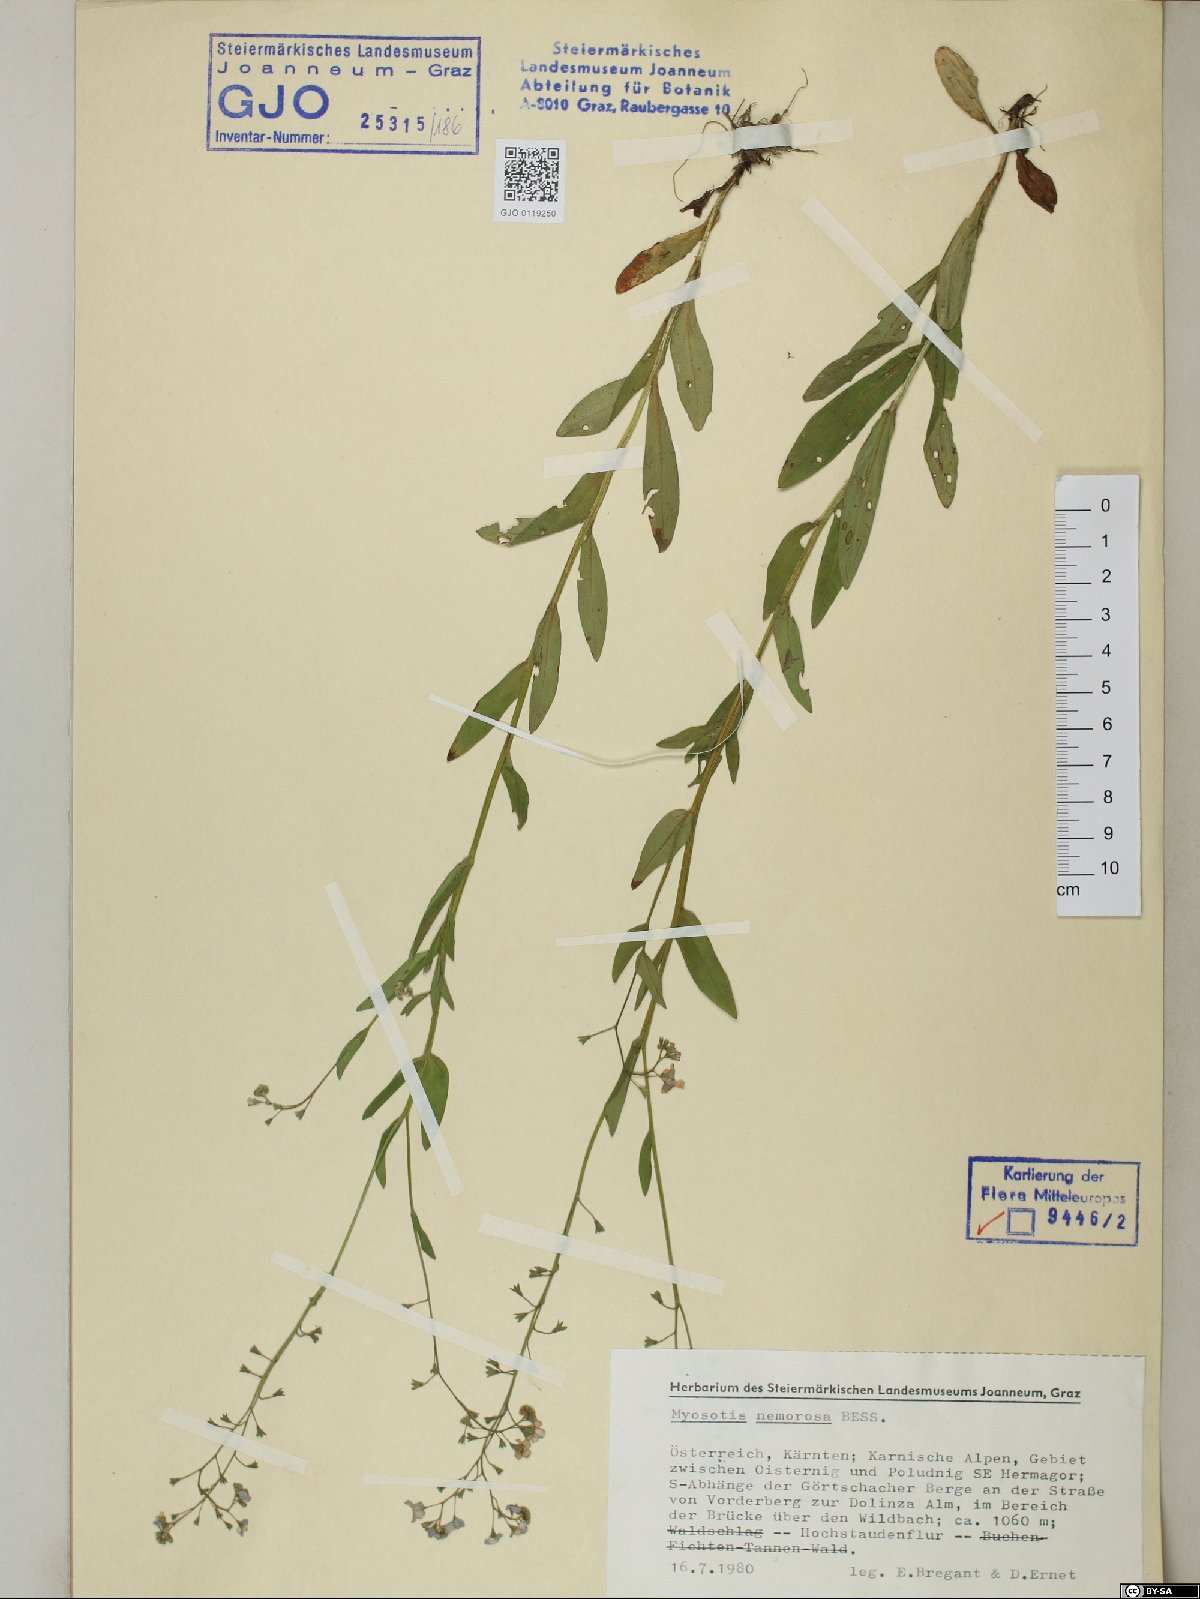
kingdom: Plantae
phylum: Tracheophyta
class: Magnoliopsida
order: Boraginales
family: Boraginaceae
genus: Myosotis
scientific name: Myosotis nemorosa
